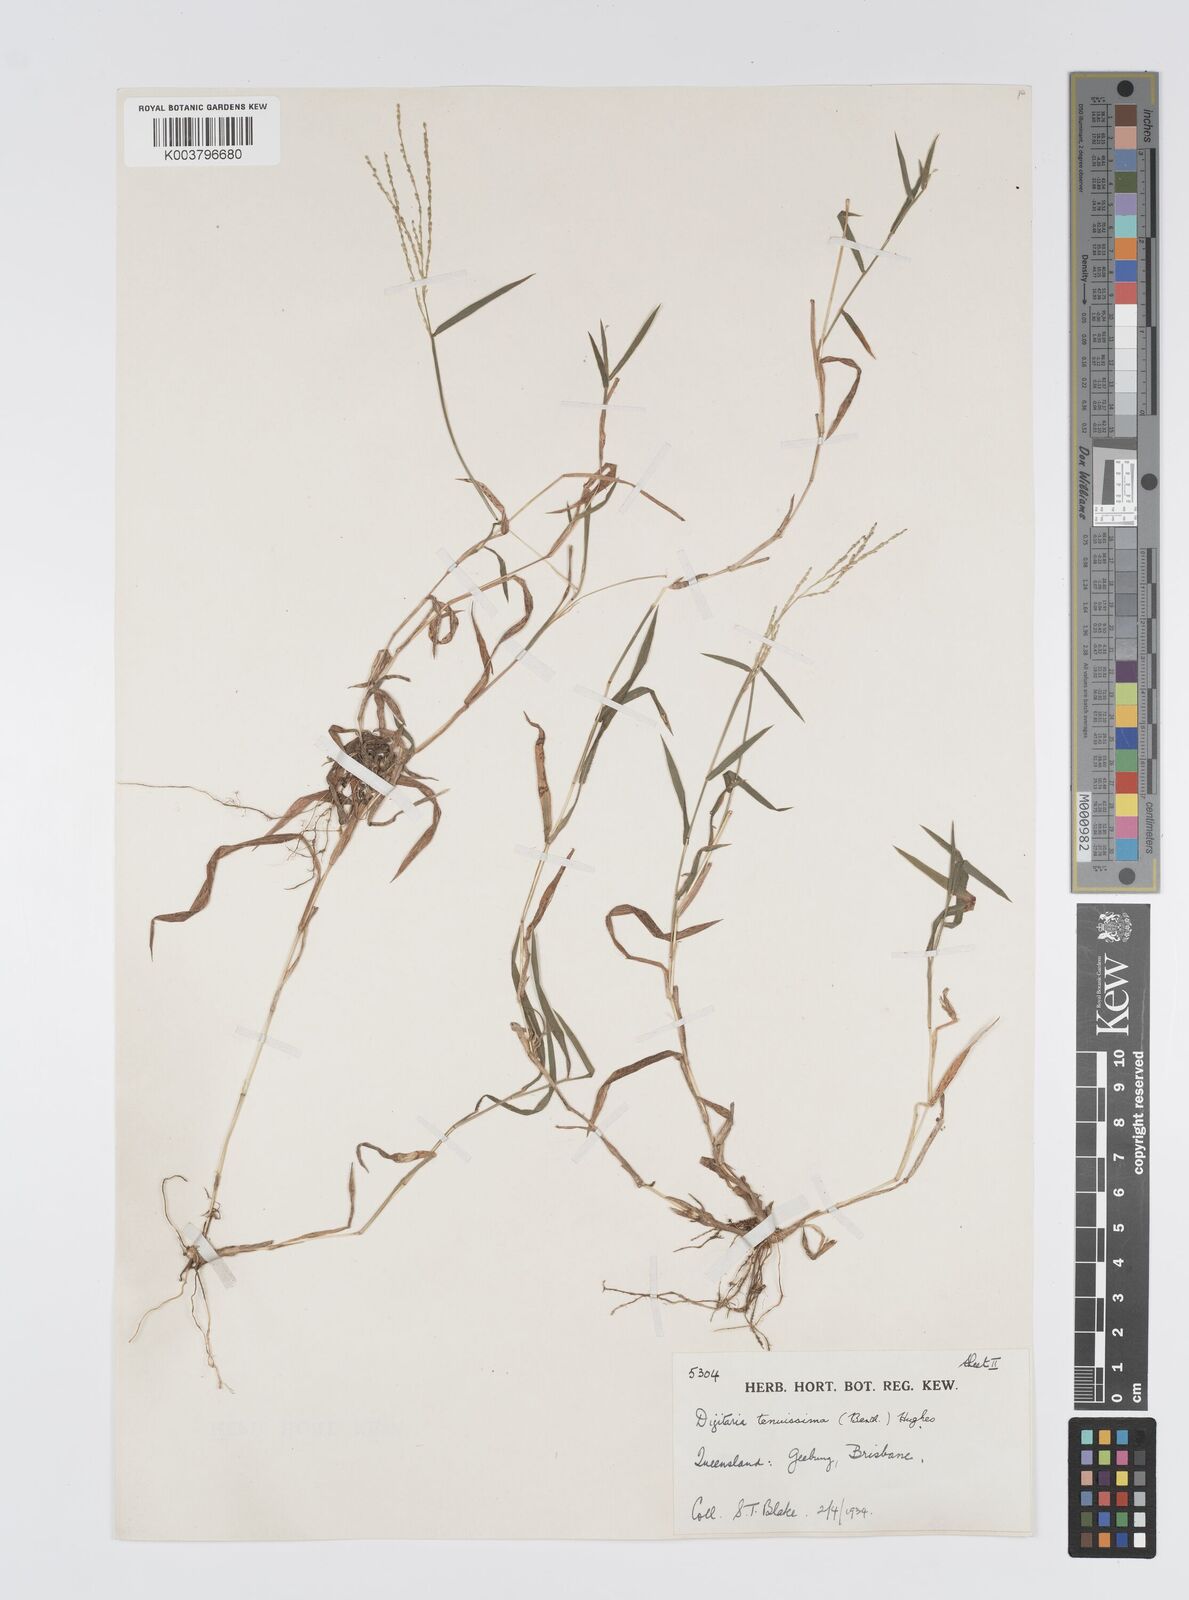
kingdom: Plantae
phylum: Tracheophyta
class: Liliopsida
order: Poales
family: Poaceae
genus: Digitaria
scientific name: Digitaria ramularis
